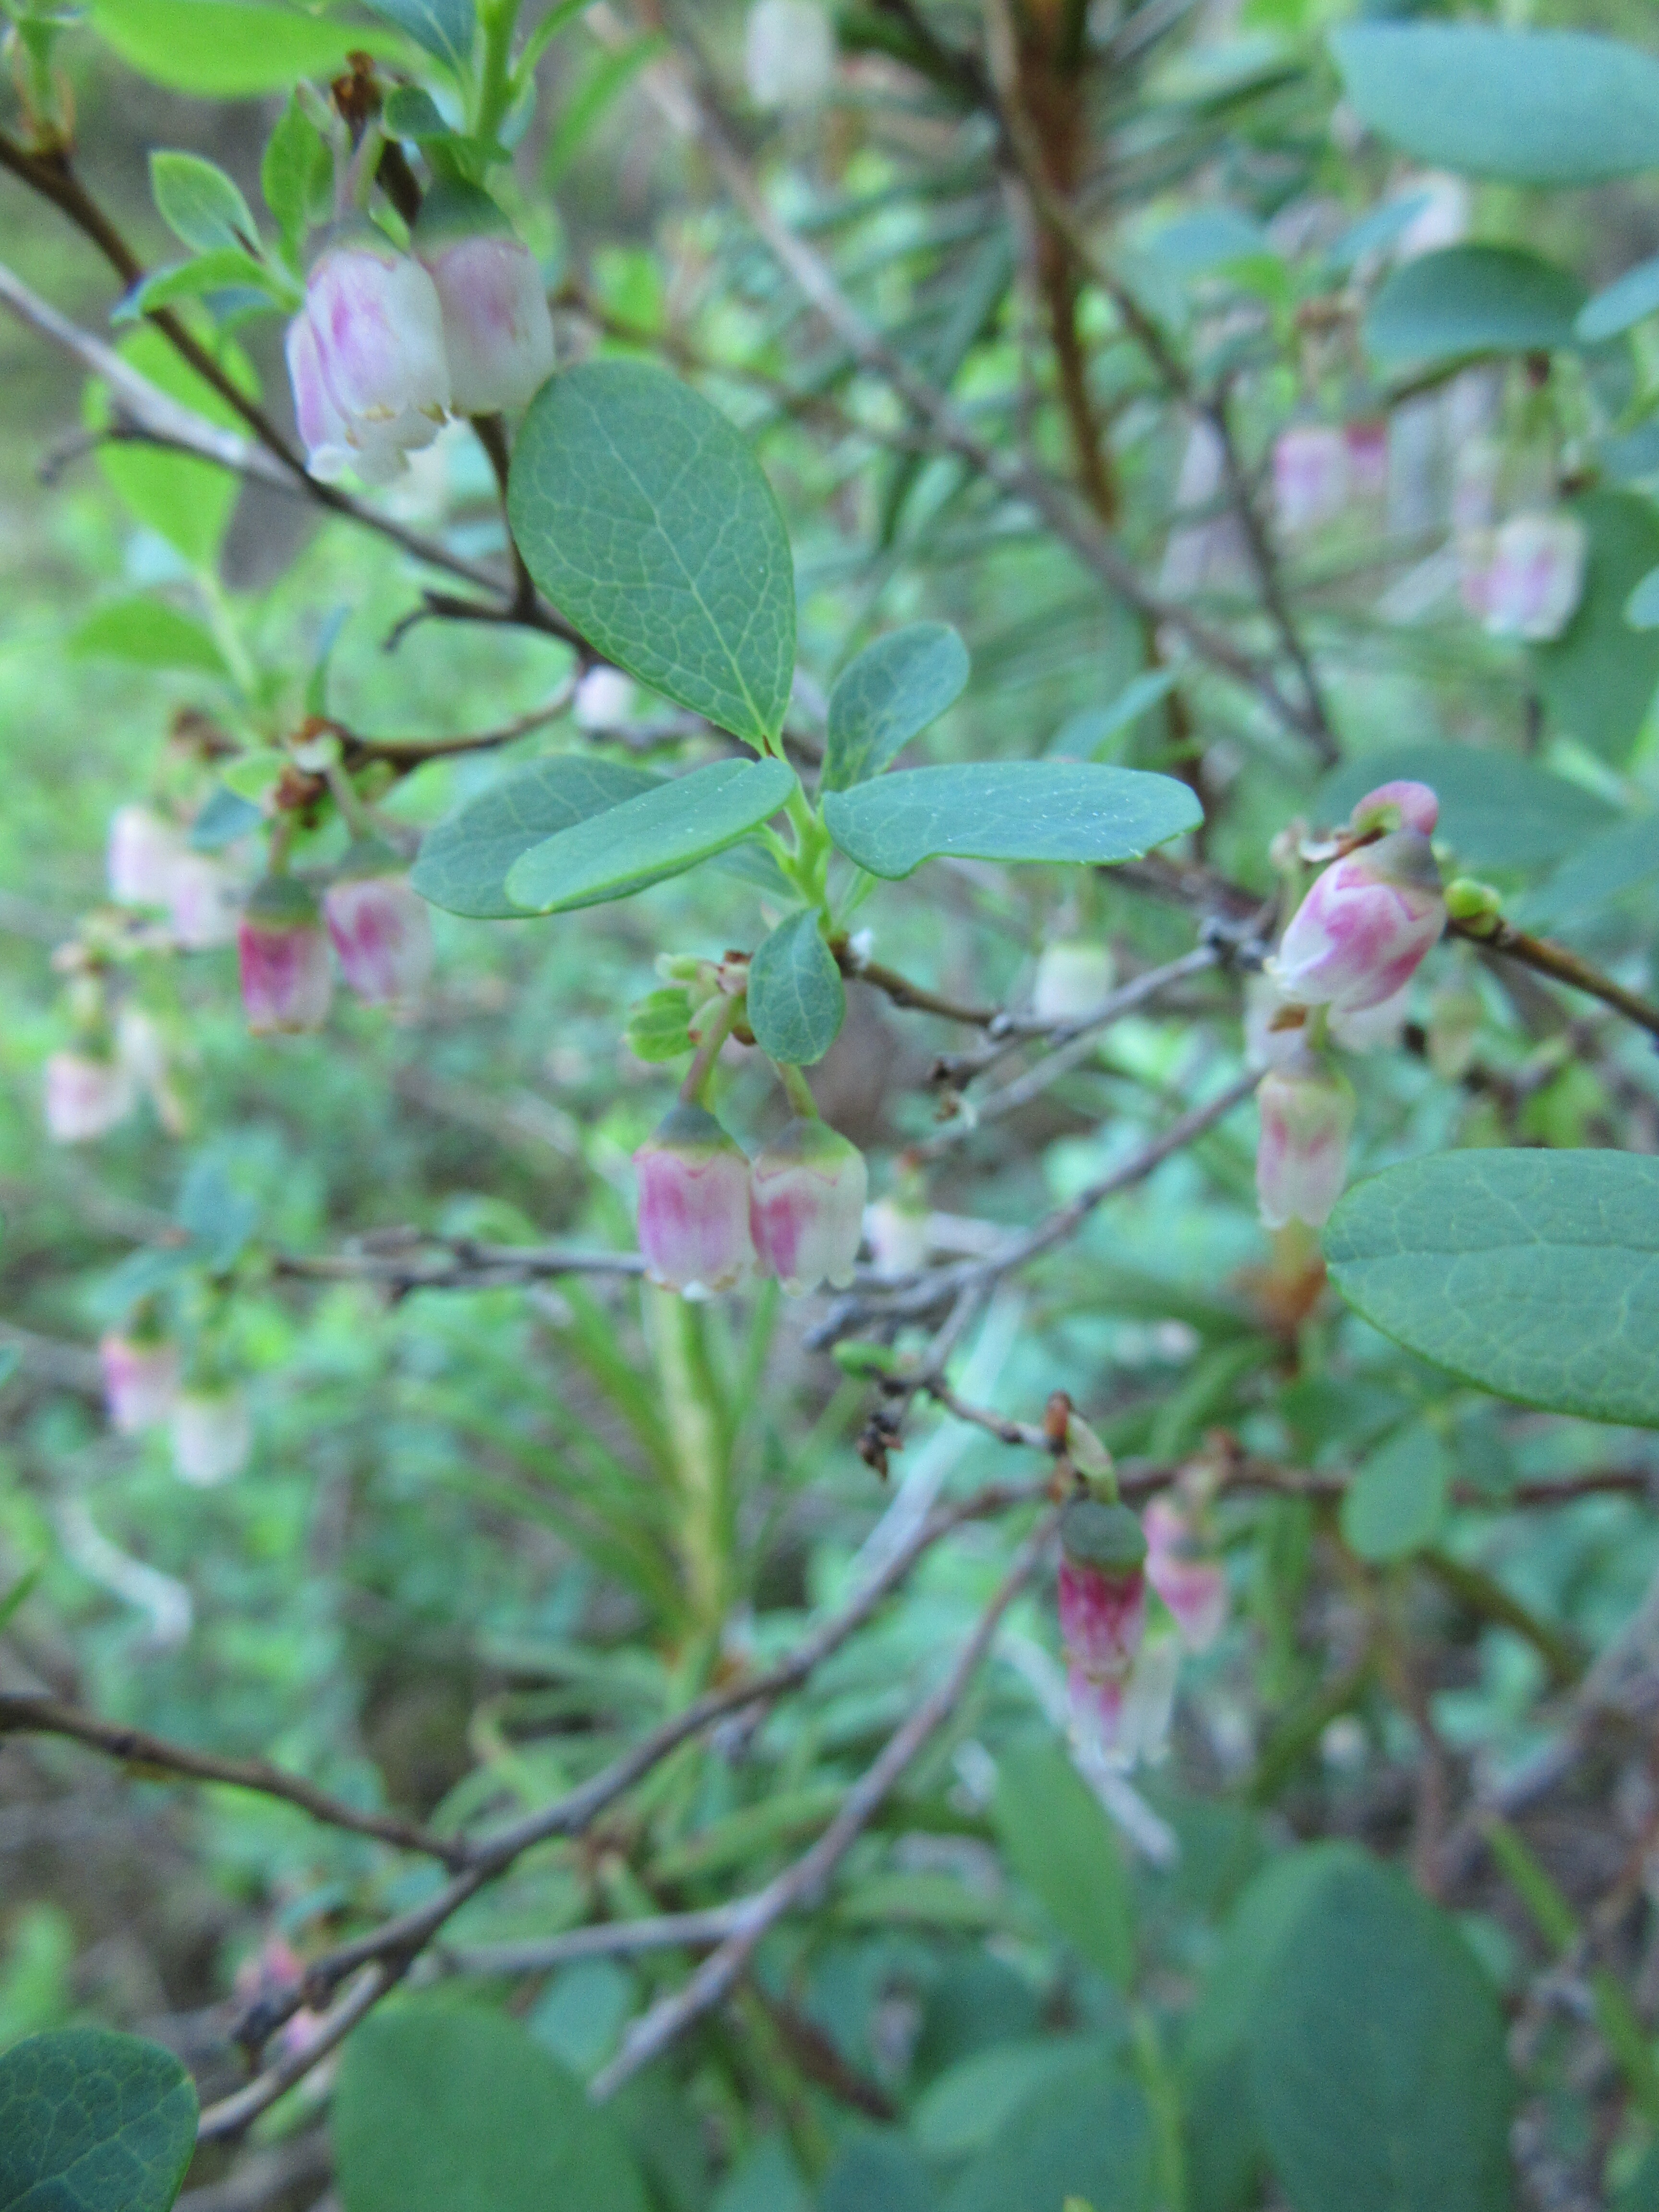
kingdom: Plantae
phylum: Tracheophyta
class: Magnoliopsida
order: Ericales
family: Ericaceae
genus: Vaccinium
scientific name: Vaccinium uliginosum
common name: Bog bilberry
